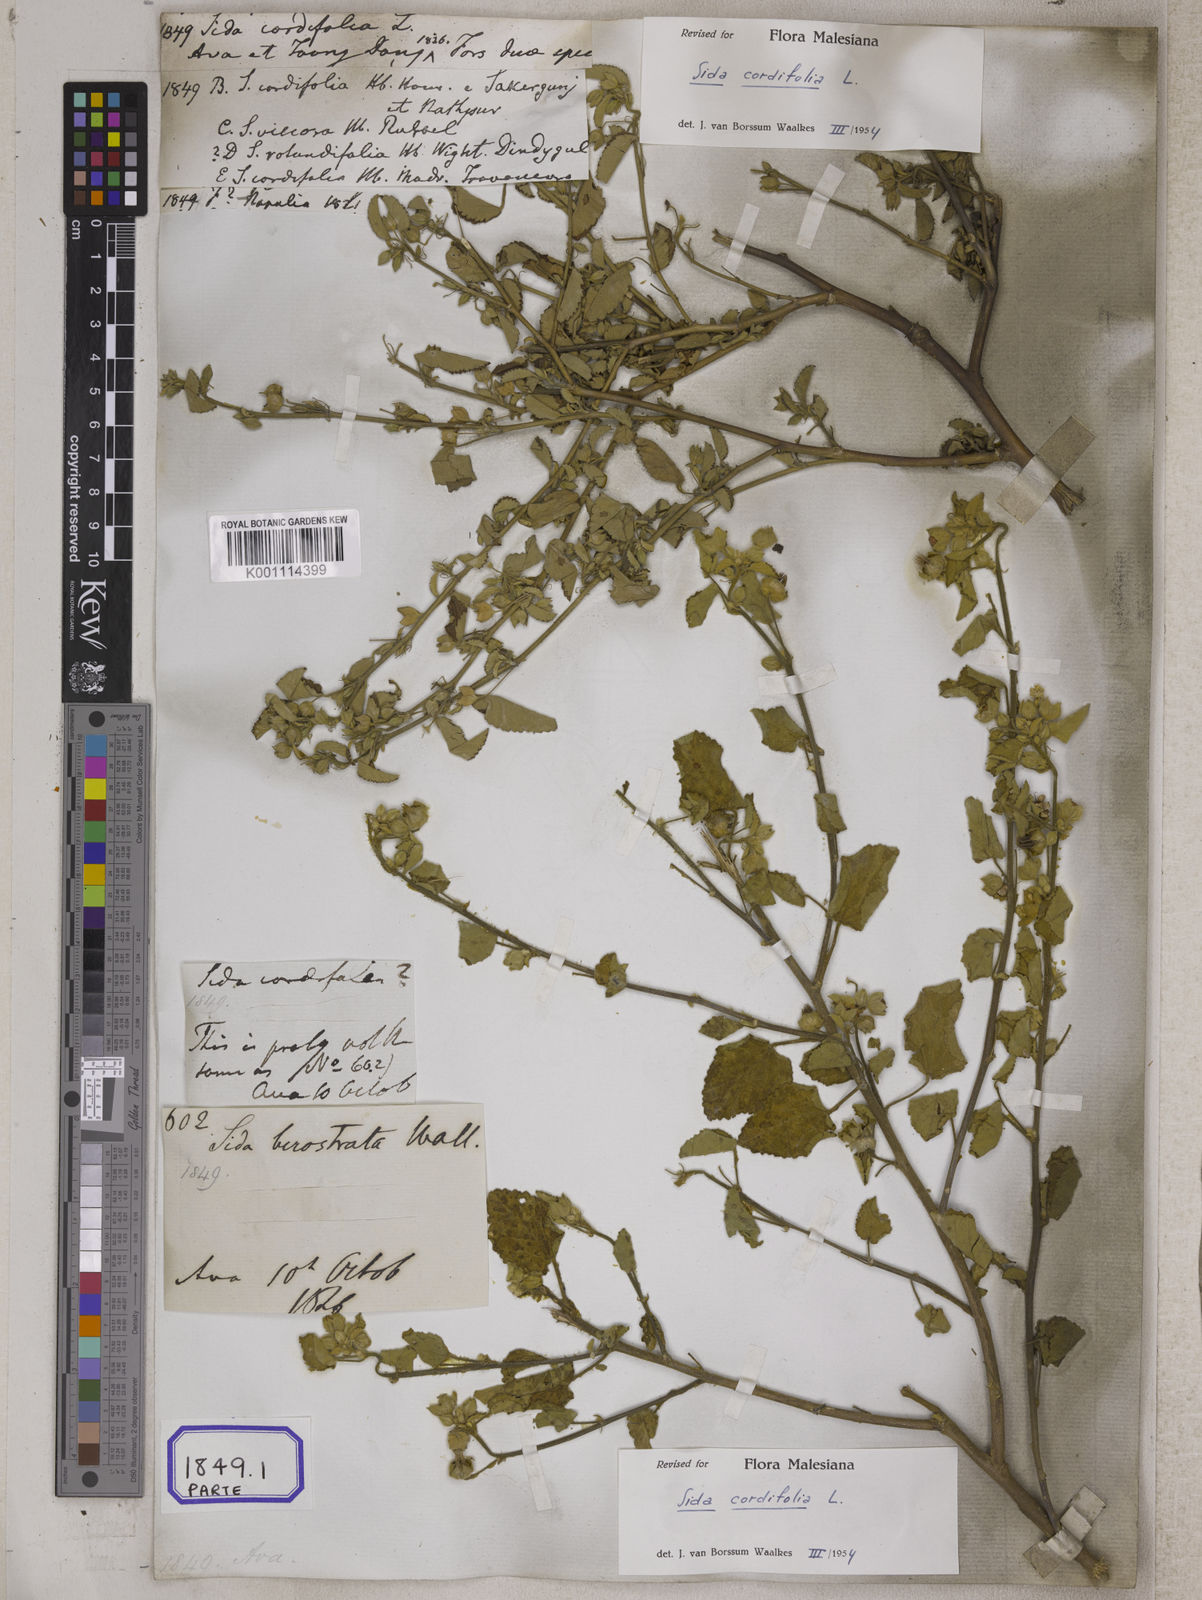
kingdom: Plantae
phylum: Tracheophyta
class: Magnoliopsida
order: Malvales
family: Malvaceae
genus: Sida
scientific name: Sida cordifolia
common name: Ilima
